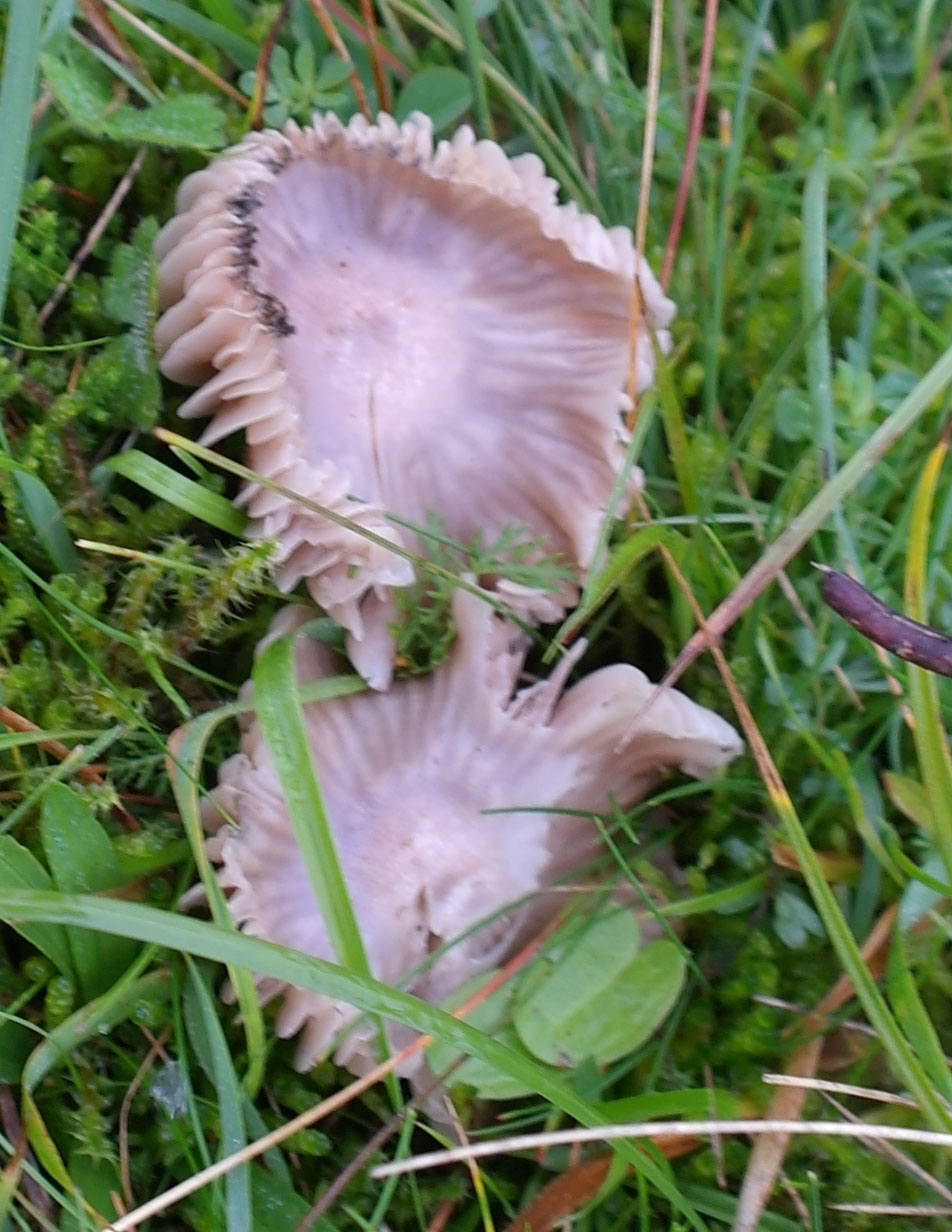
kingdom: Fungi
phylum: Basidiomycota
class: Agaricomycetes
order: Agaricales
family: Hygrophoraceae
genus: Cuphophyllus
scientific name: Cuphophyllus flavipes
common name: gulfodet vokshat
